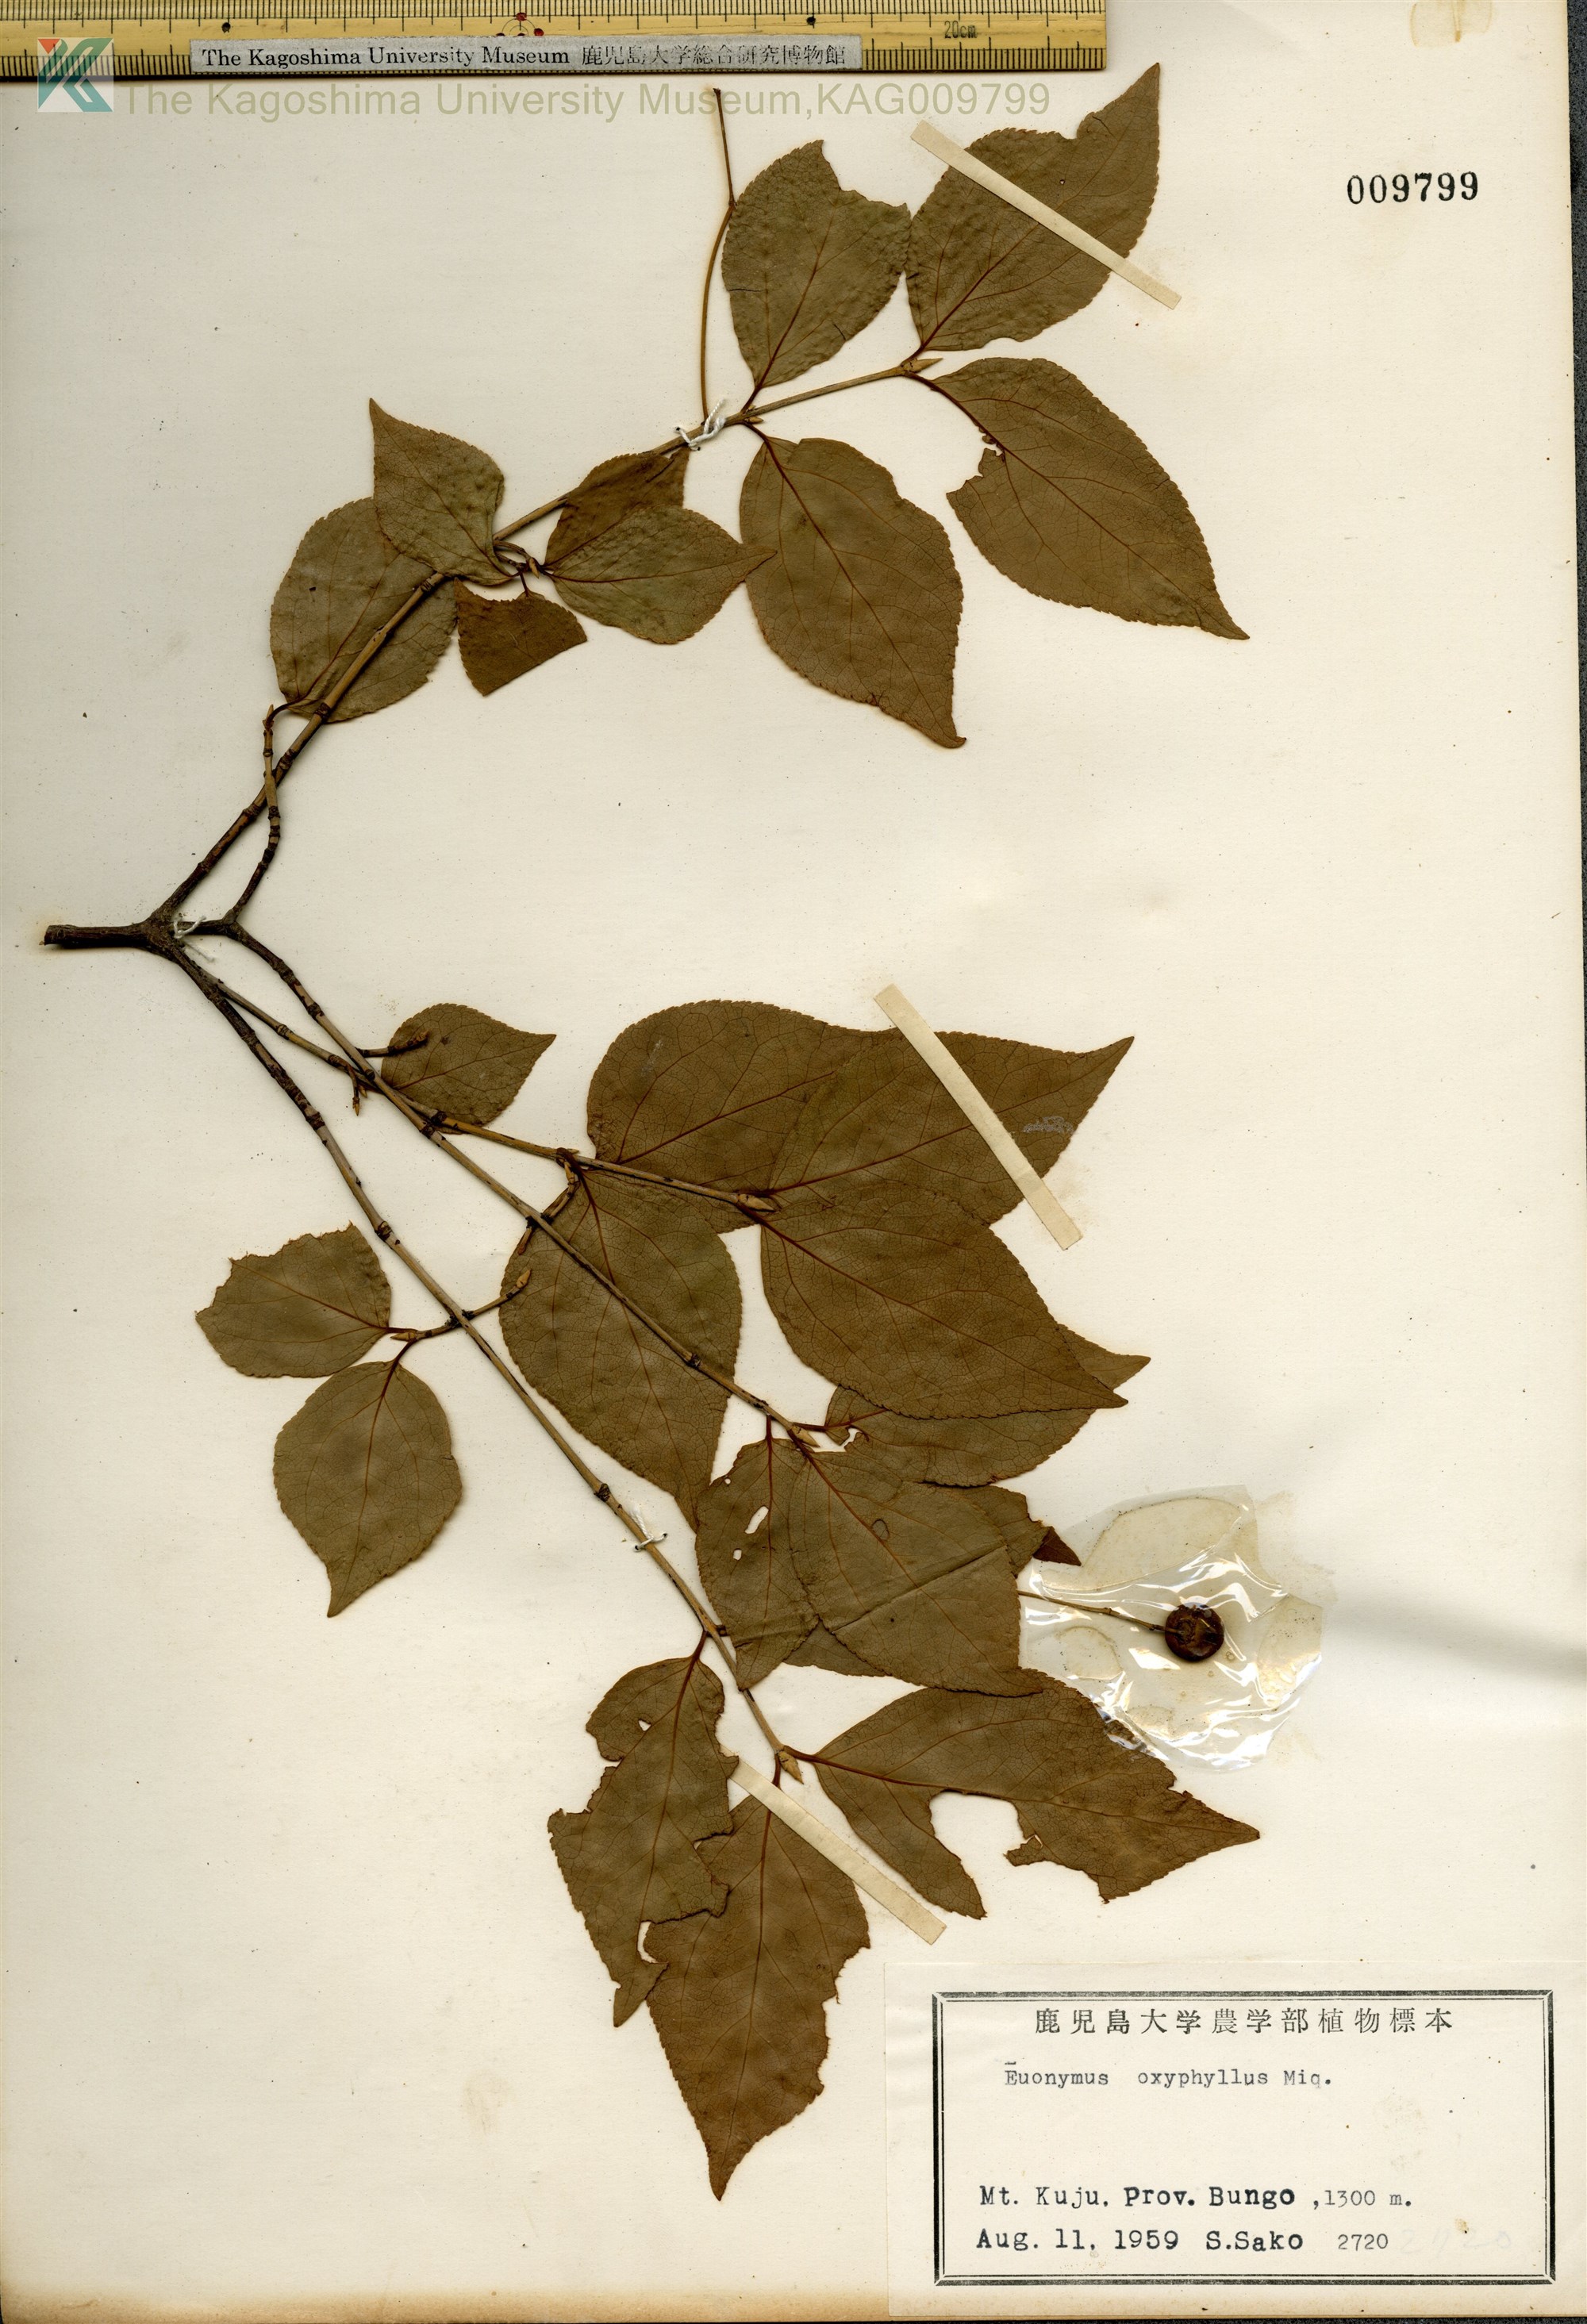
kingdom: Plantae
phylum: Tracheophyta
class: Magnoliopsida
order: Celastrales
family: Celastraceae
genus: Euonymus
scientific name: Euonymus oxyphyllus
